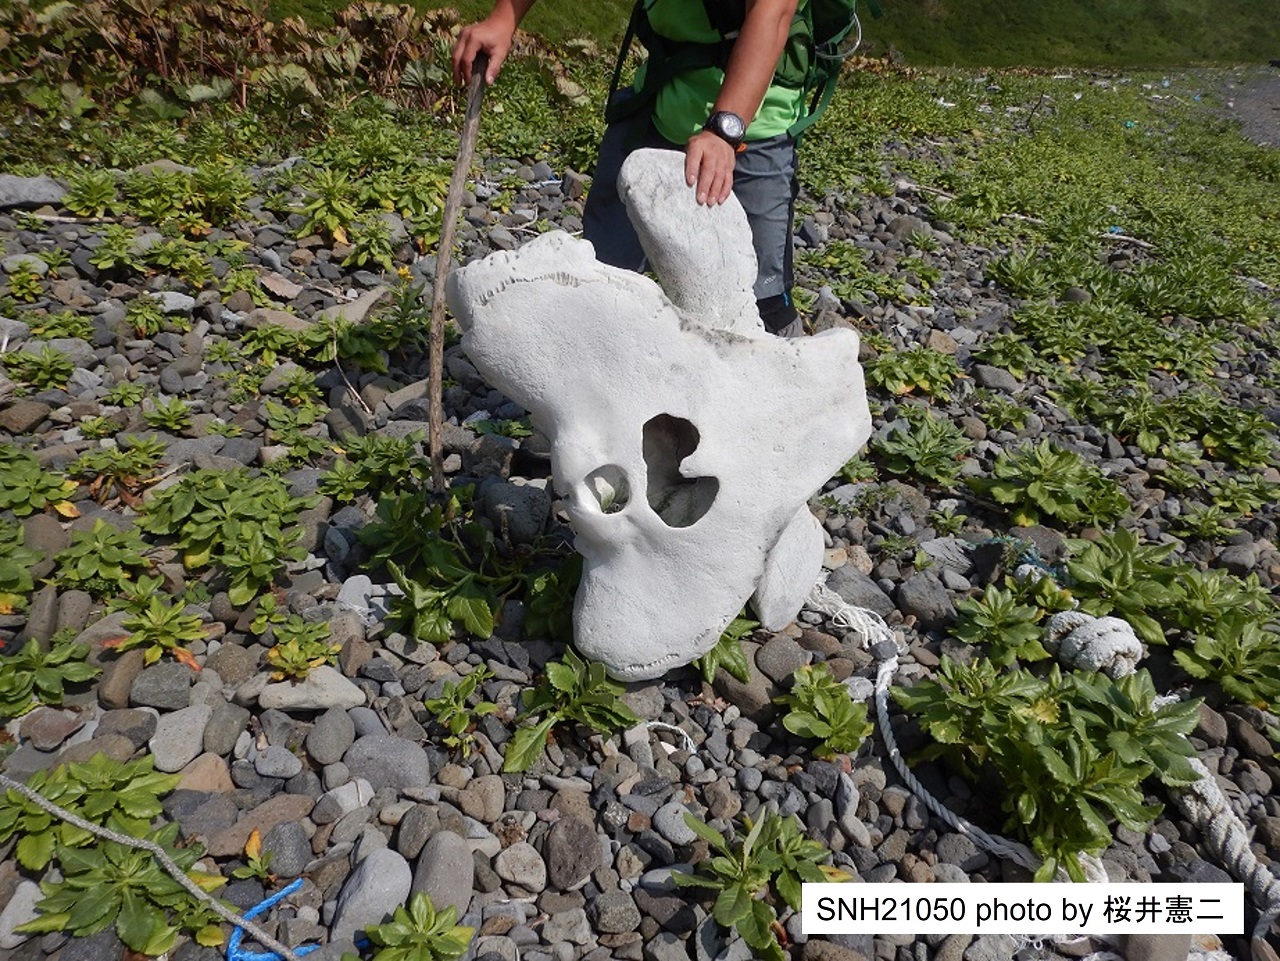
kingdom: Animalia
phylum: Chordata
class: Mammalia
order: Cetacea
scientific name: Cetacea
